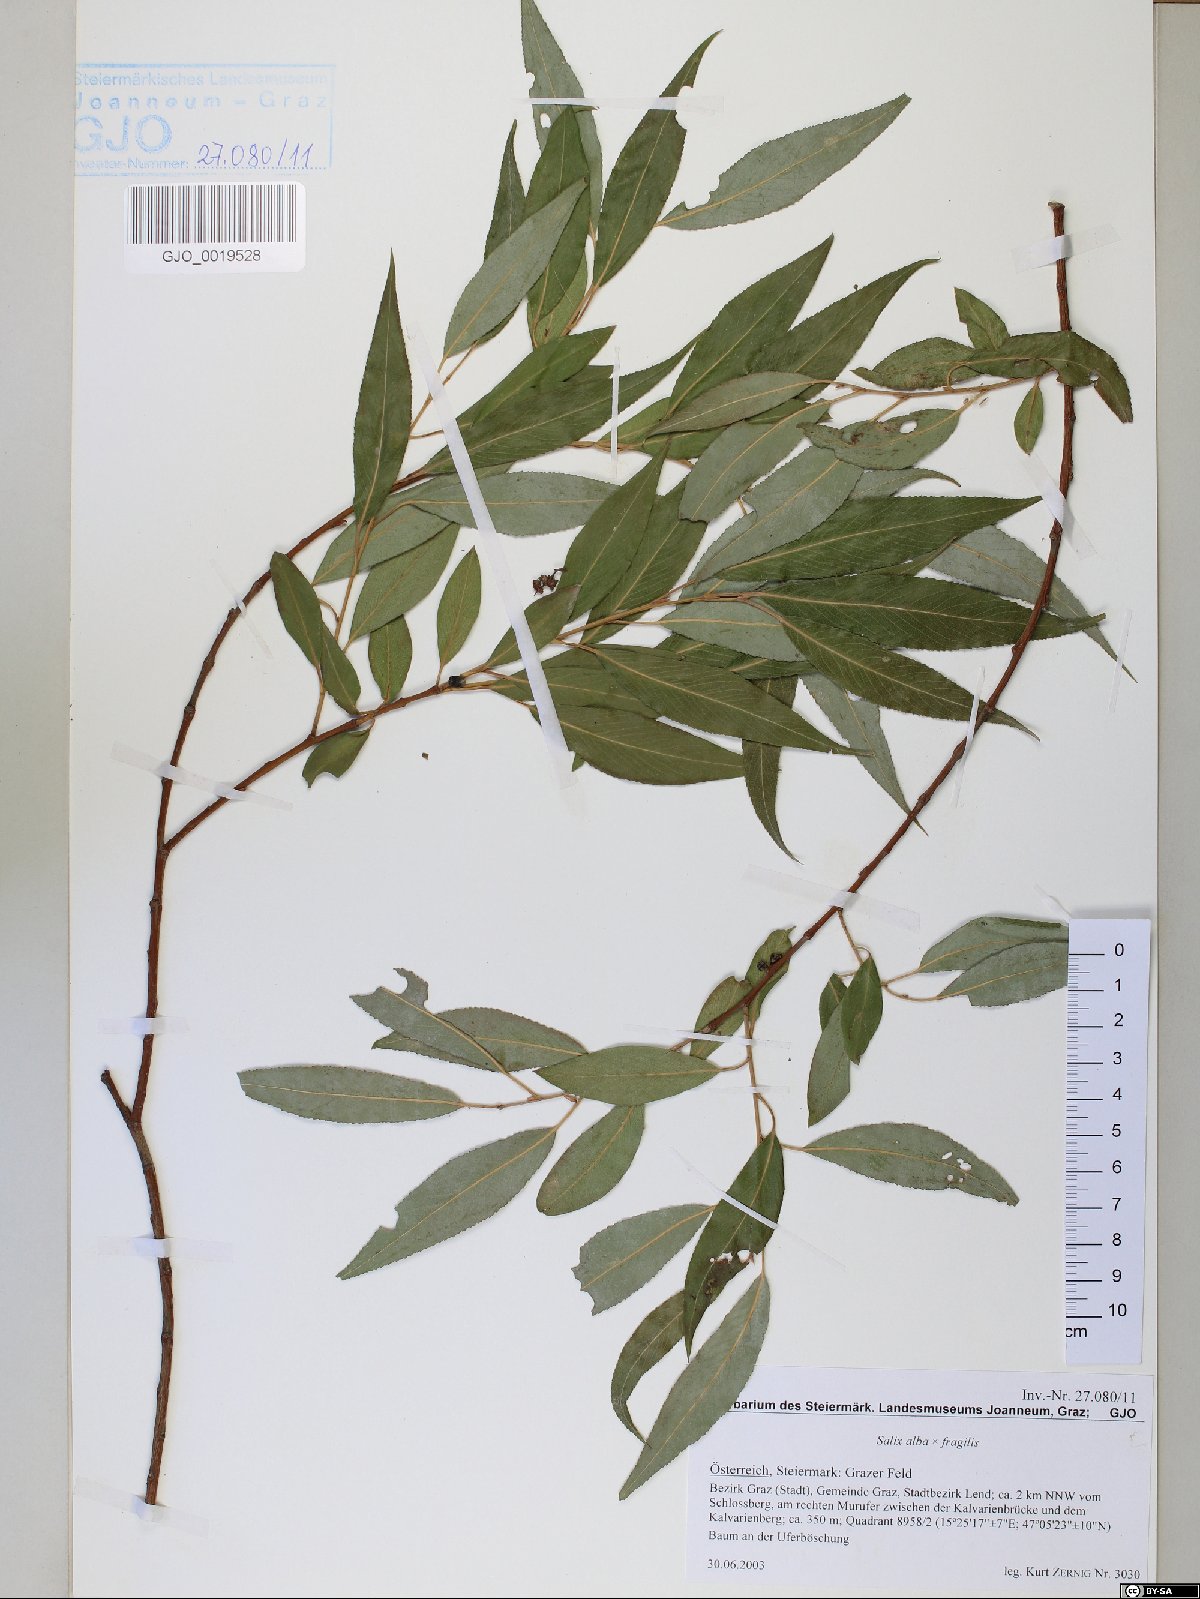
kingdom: Plantae
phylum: Tracheophyta
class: Magnoliopsida
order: Malpighiales
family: Salicaceae
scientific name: Salicaceae
